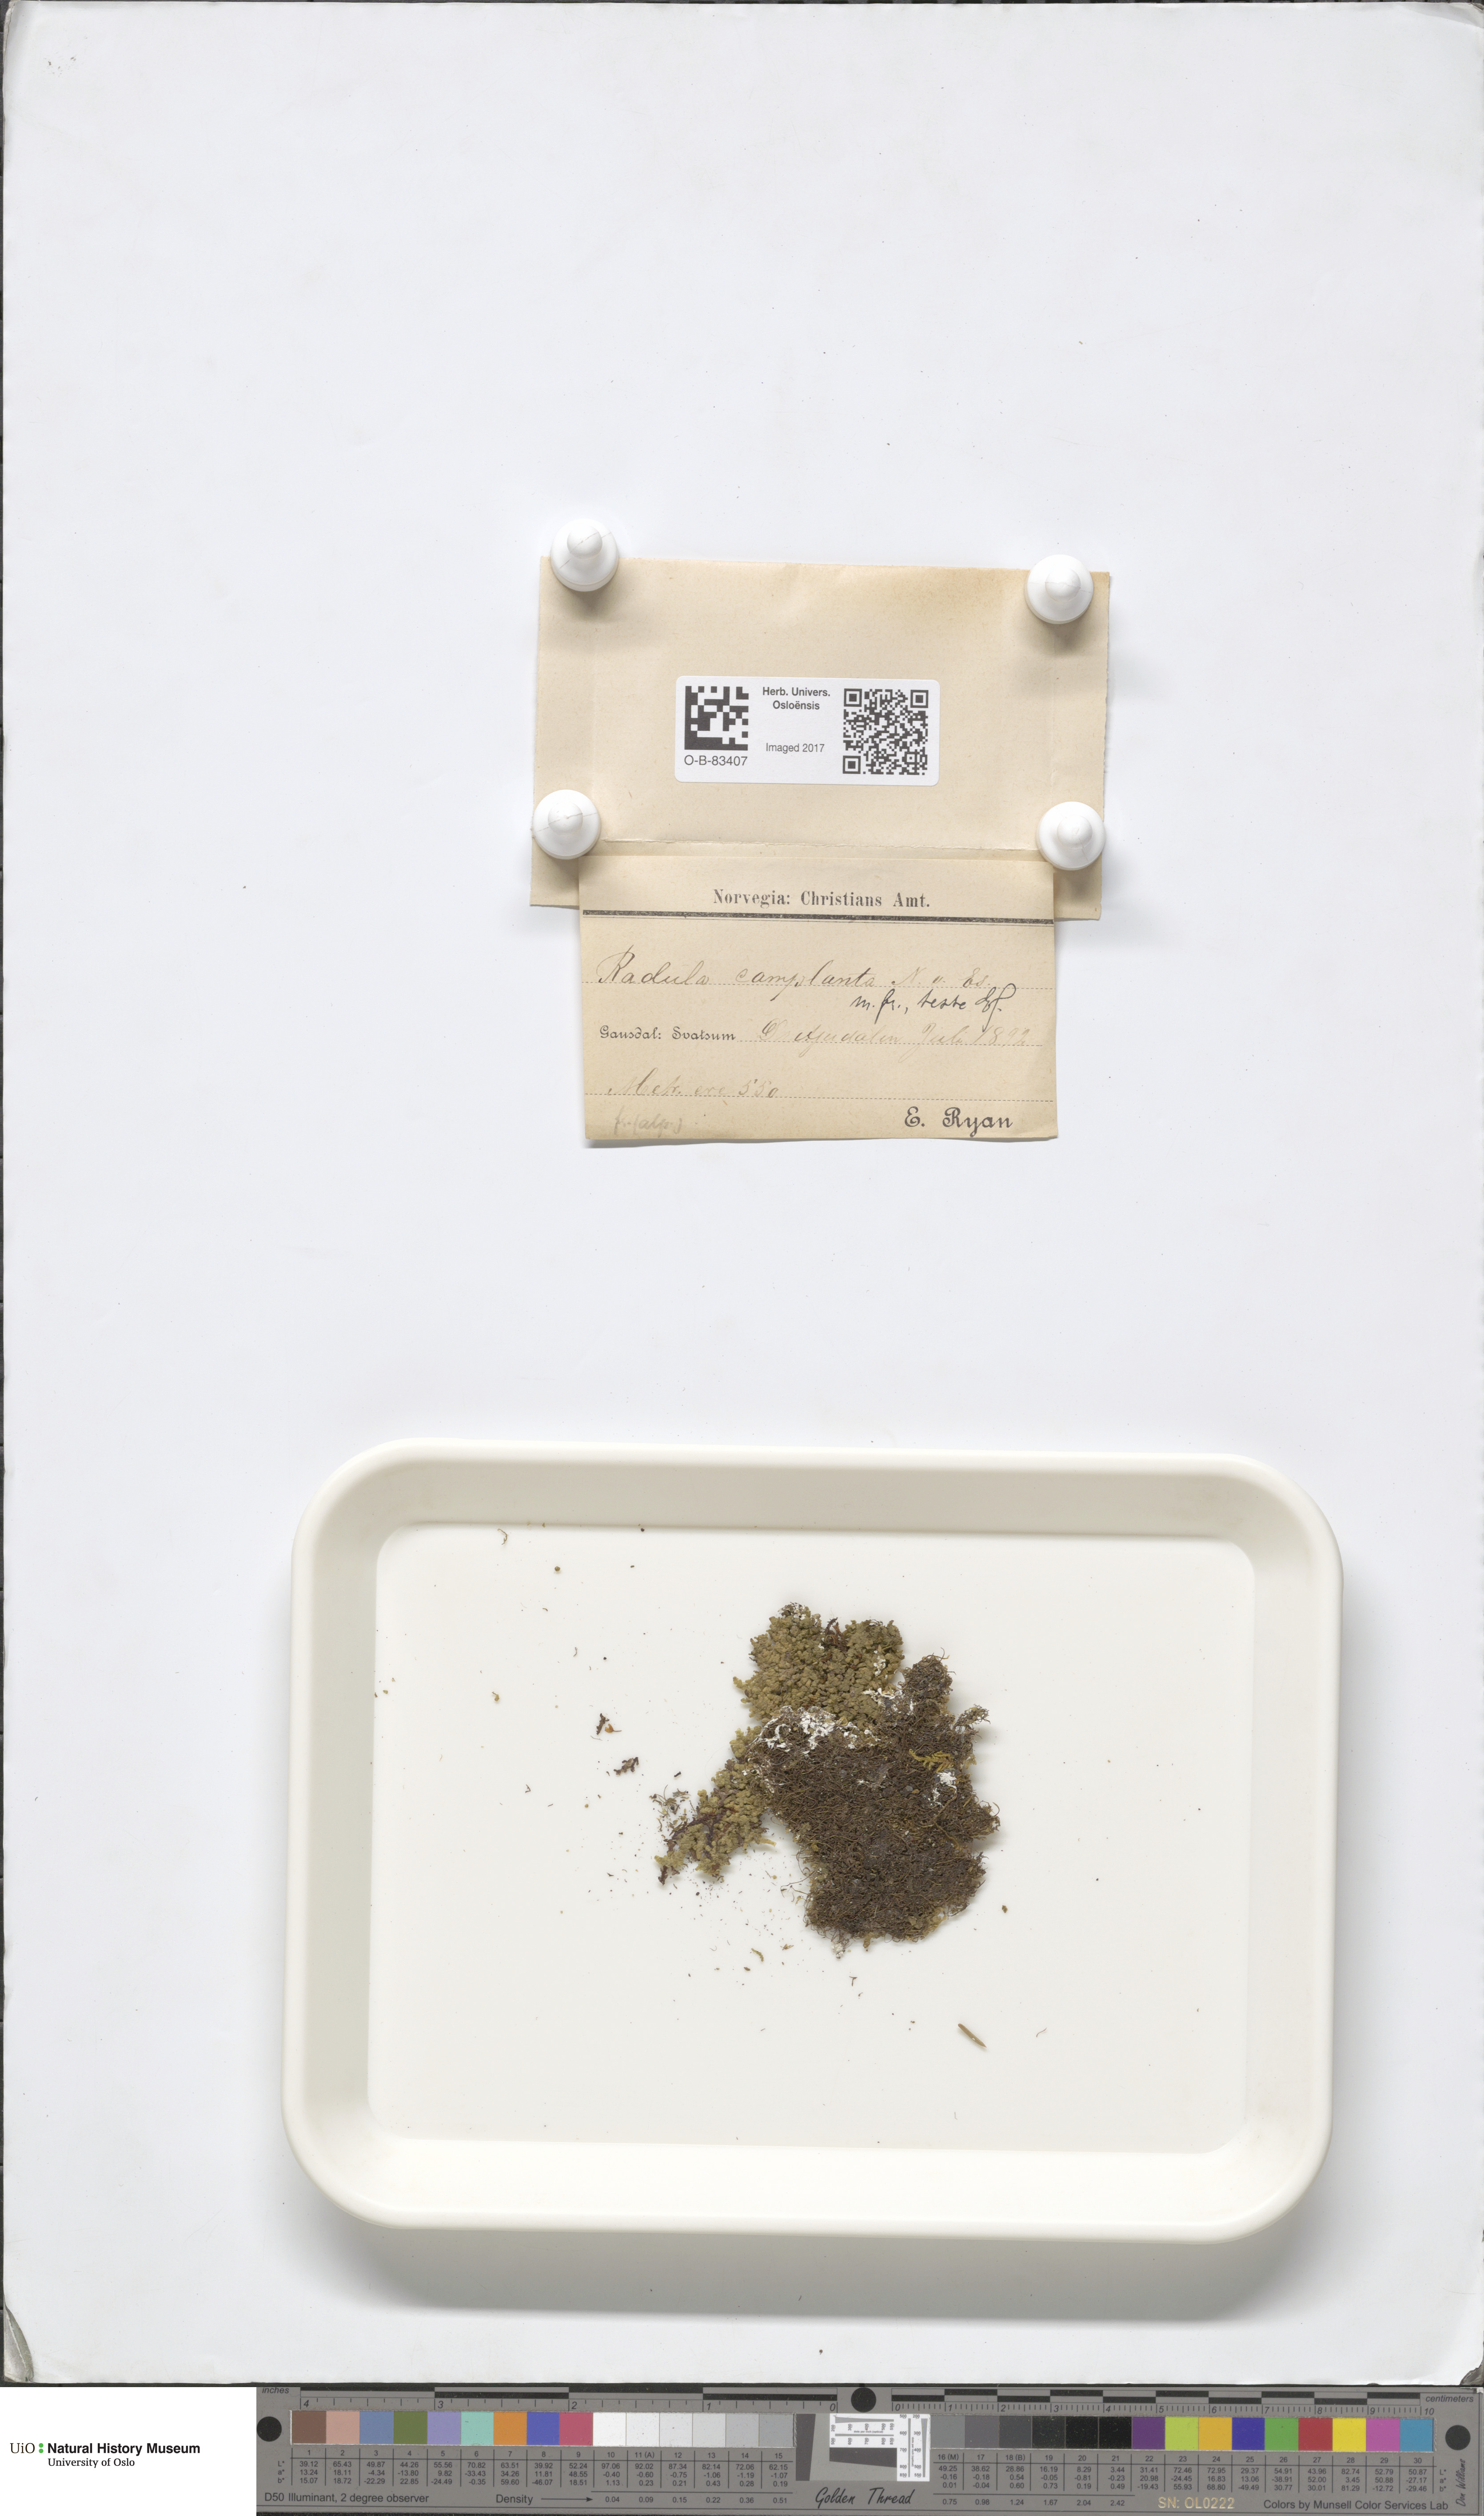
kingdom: Plantae
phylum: Marchantiophyta
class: Jungermanniopsida
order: Porellales
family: Radulaceae
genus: Radula
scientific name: Radula complanata
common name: Flat-leaved scalewort
